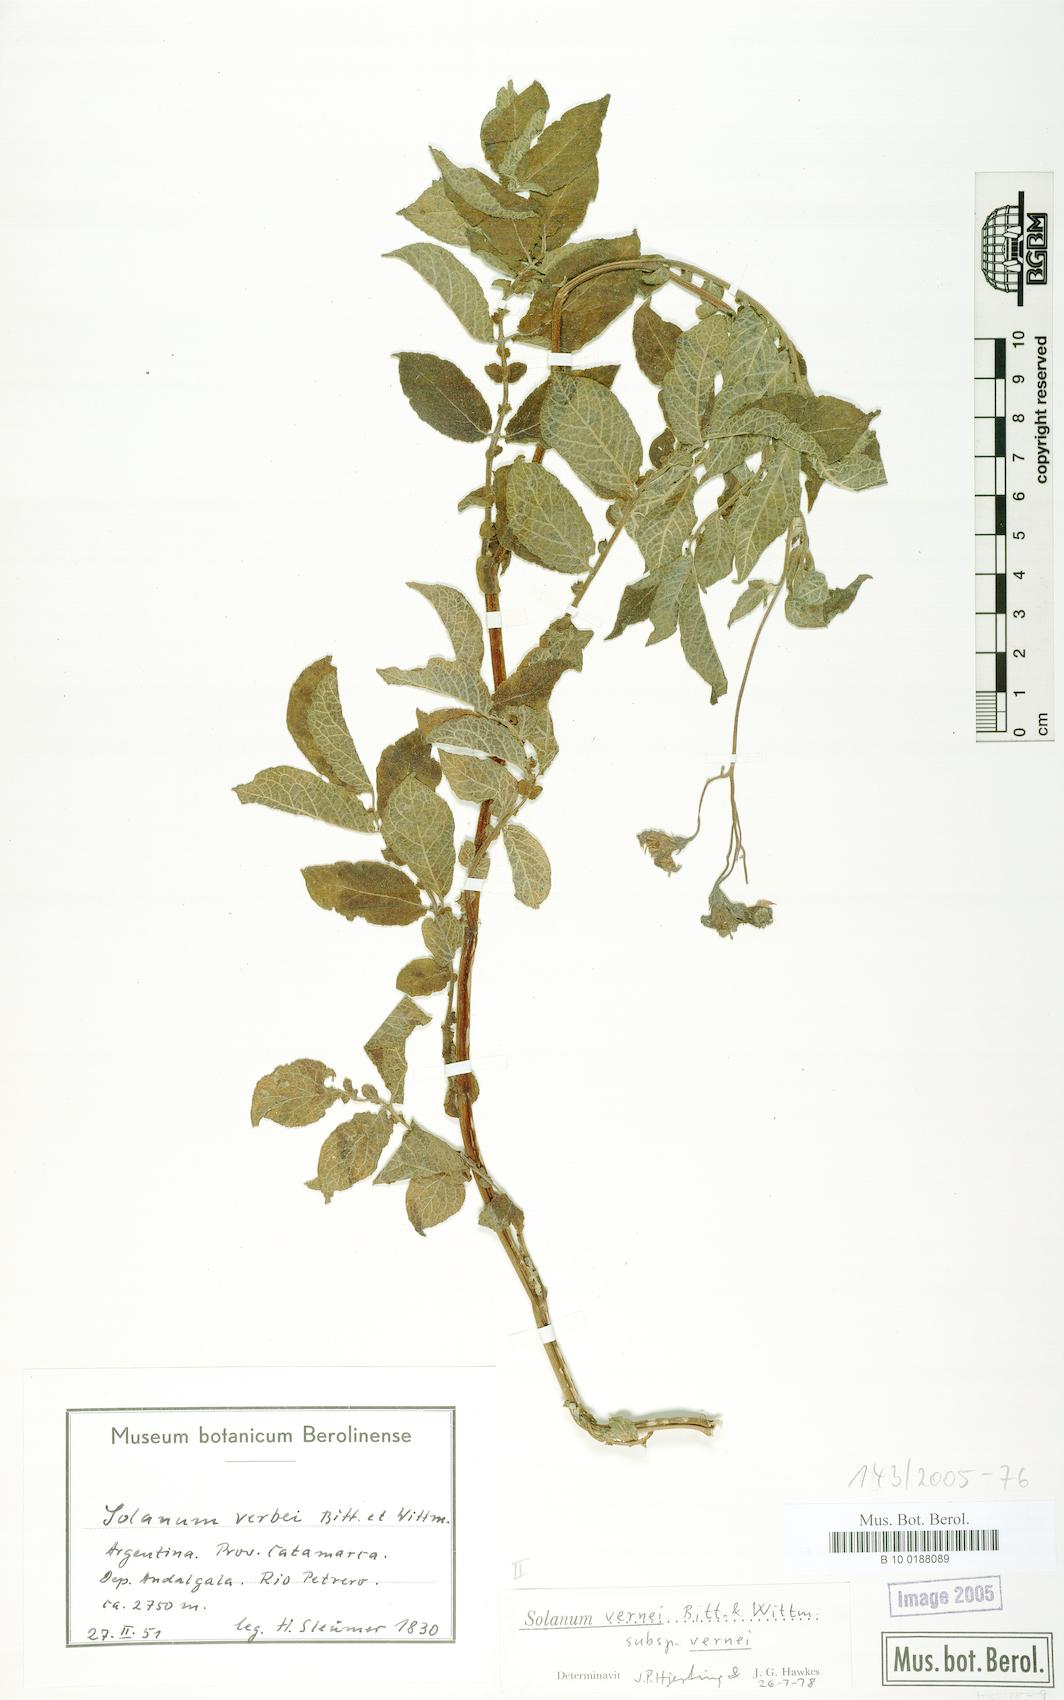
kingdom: Plantae
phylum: Tracheophyta
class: Magnoliopsida
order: Solanales
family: Solanaceae
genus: Solanum
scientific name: Solanum vernei
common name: Purple potato
